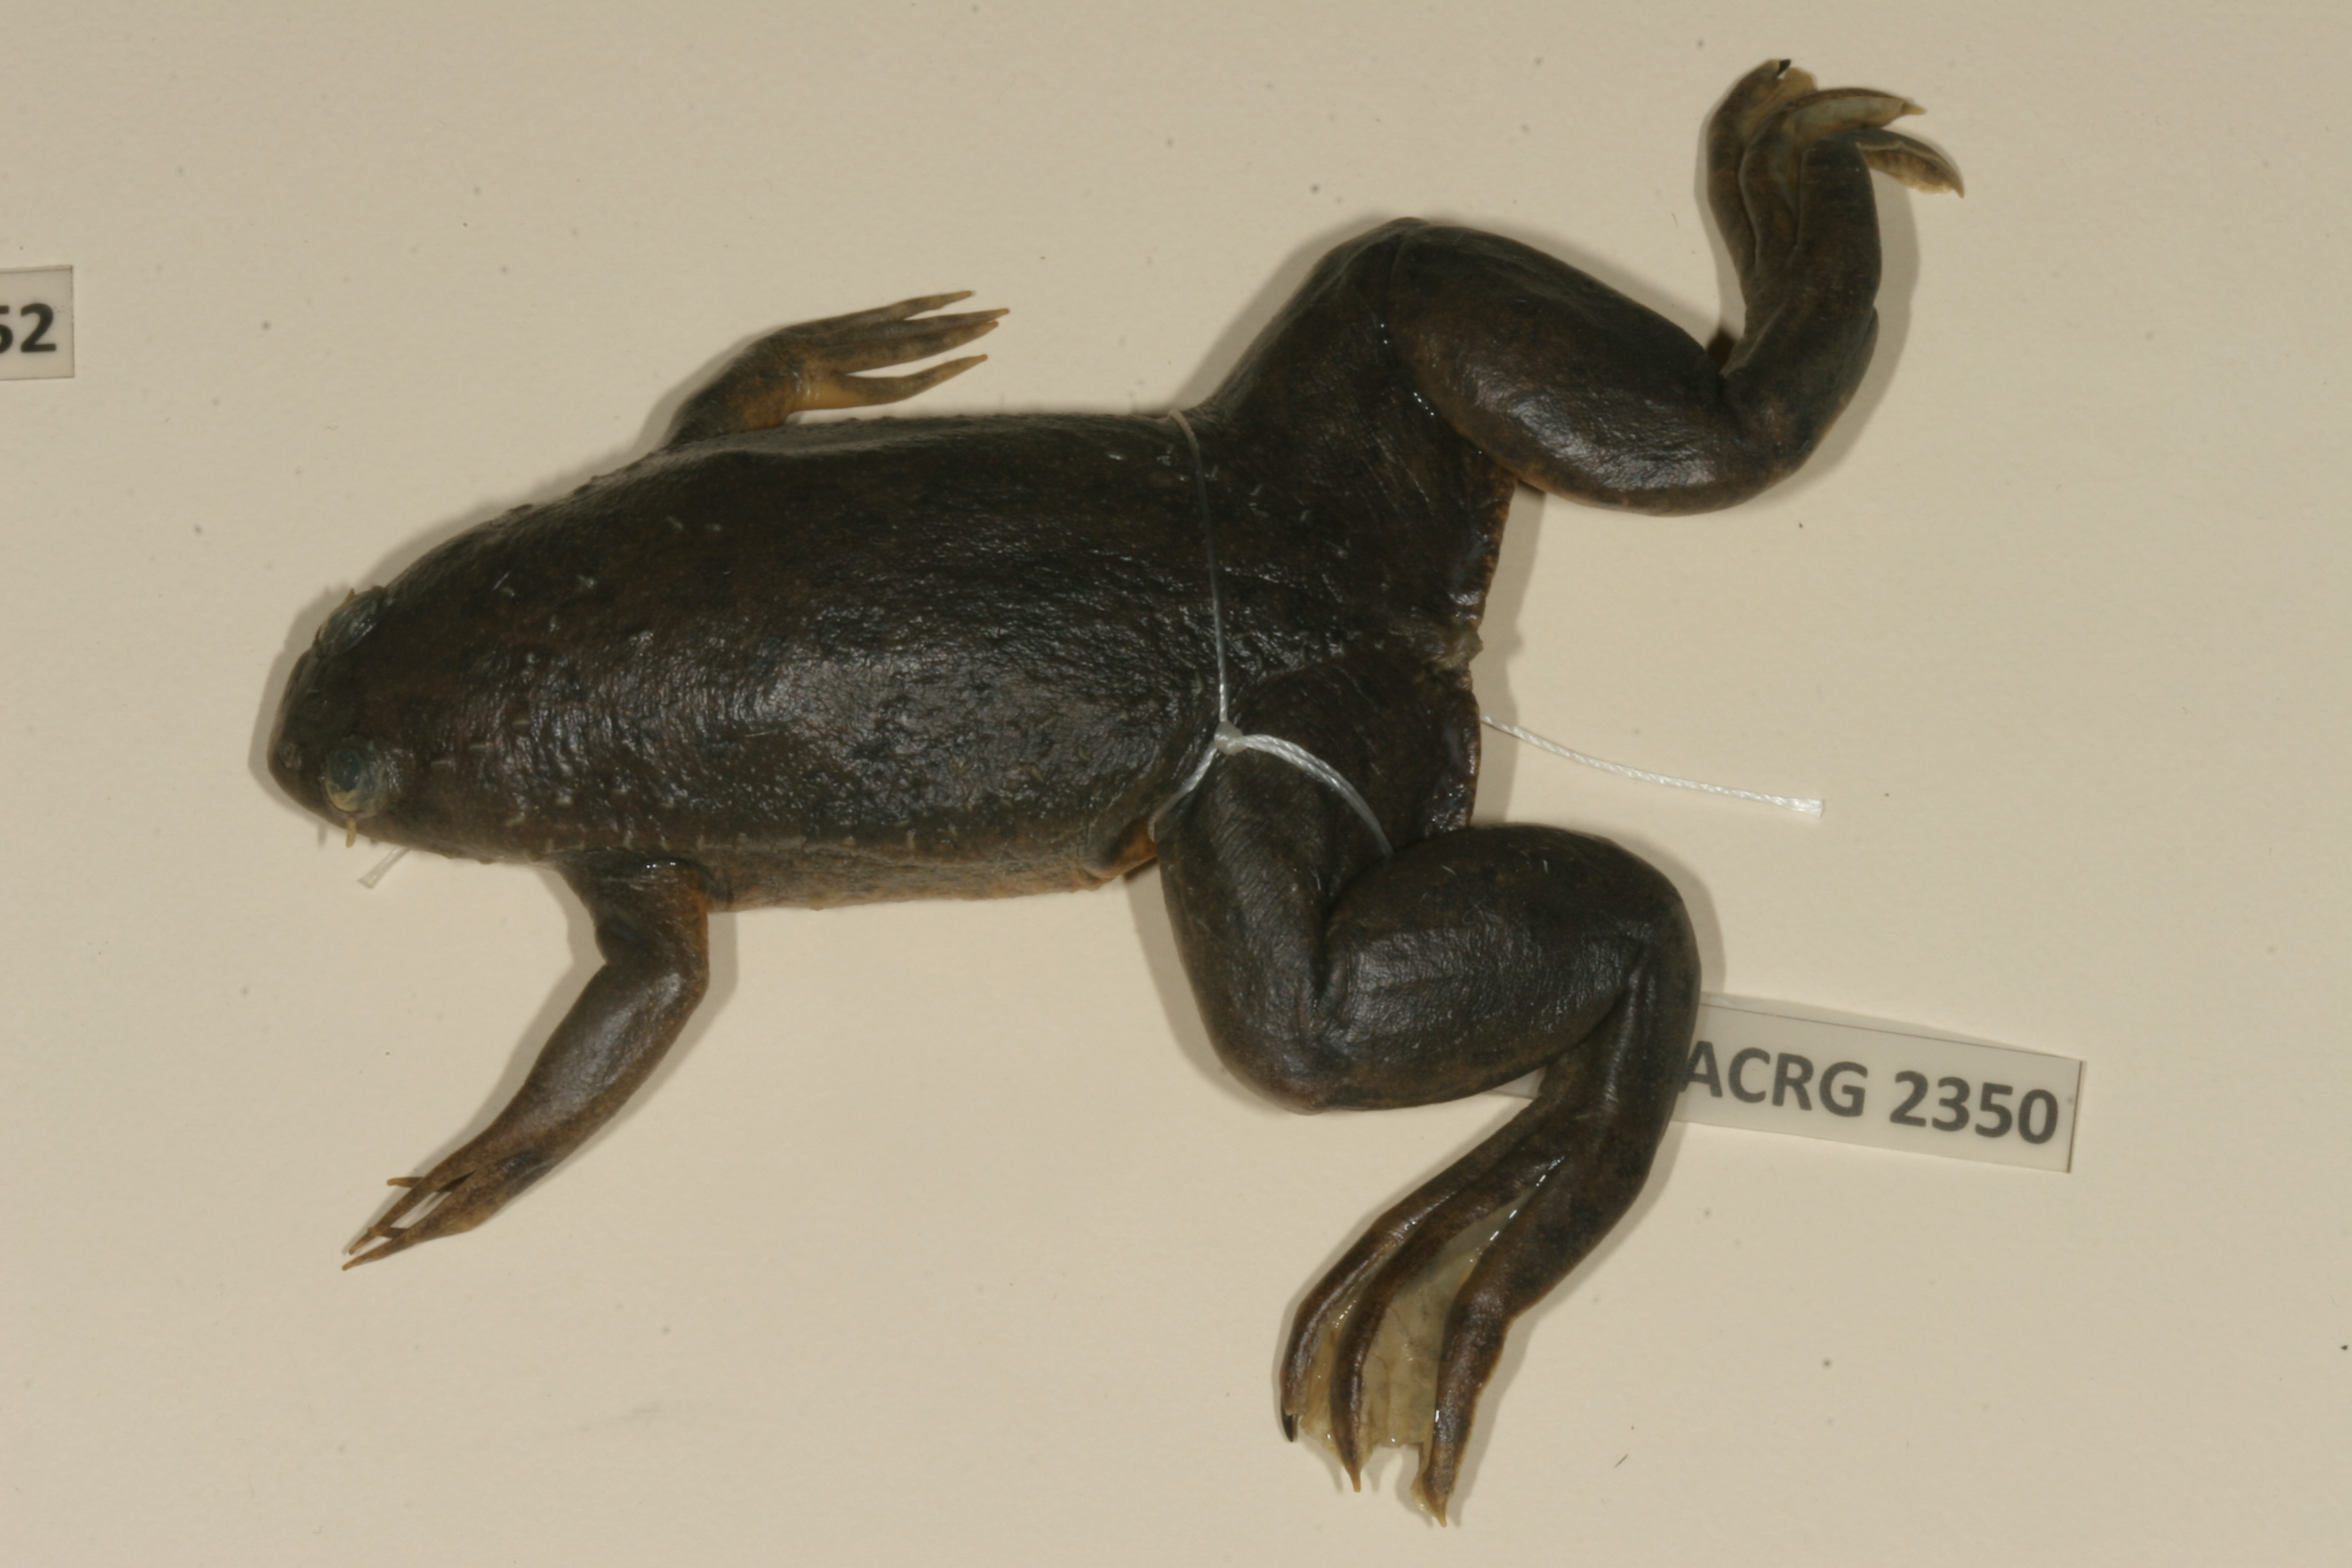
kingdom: Animalia
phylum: Chordata
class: Amphibia
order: Anura
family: Pipidae
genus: Xenopus
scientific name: Xenopus muelleri
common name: Muller's clawed frog
